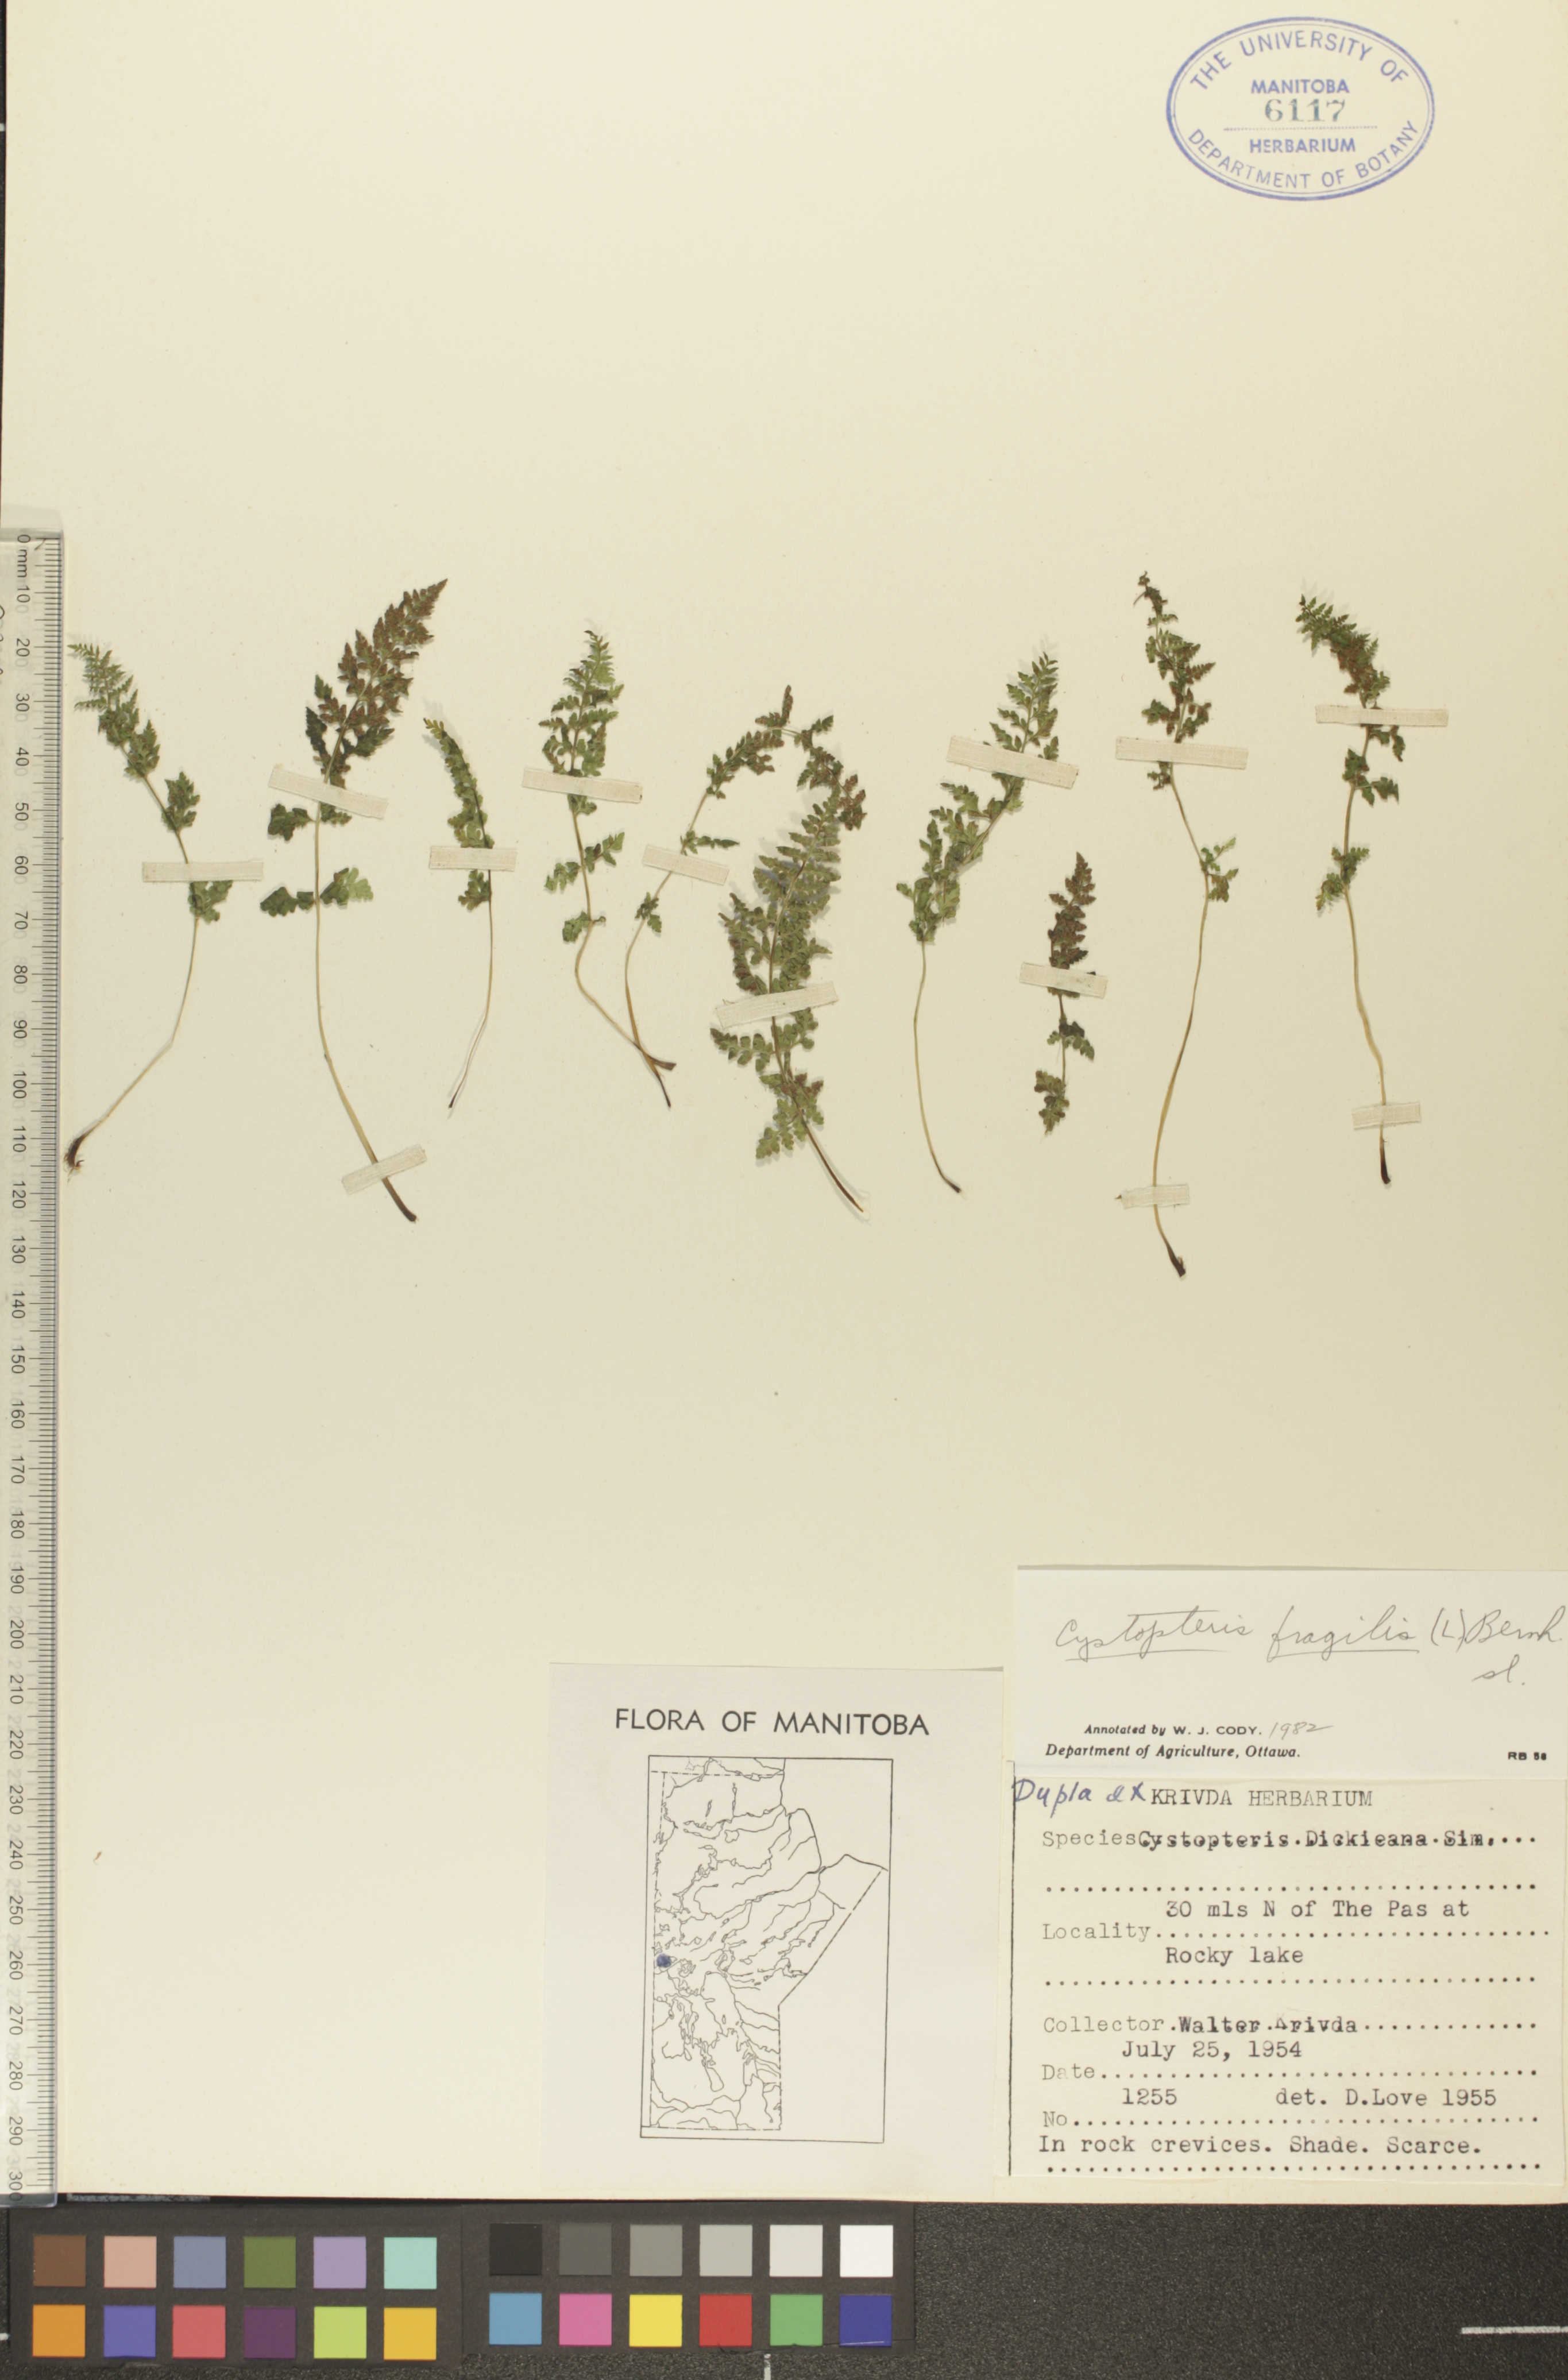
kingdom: Plantae
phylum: Tracheophyta
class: Polypodiopsida
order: Polypodiales
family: Cystopteridaceae
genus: Cystopteris
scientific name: Cystopteris fragilis
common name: Brittle bladder fern
